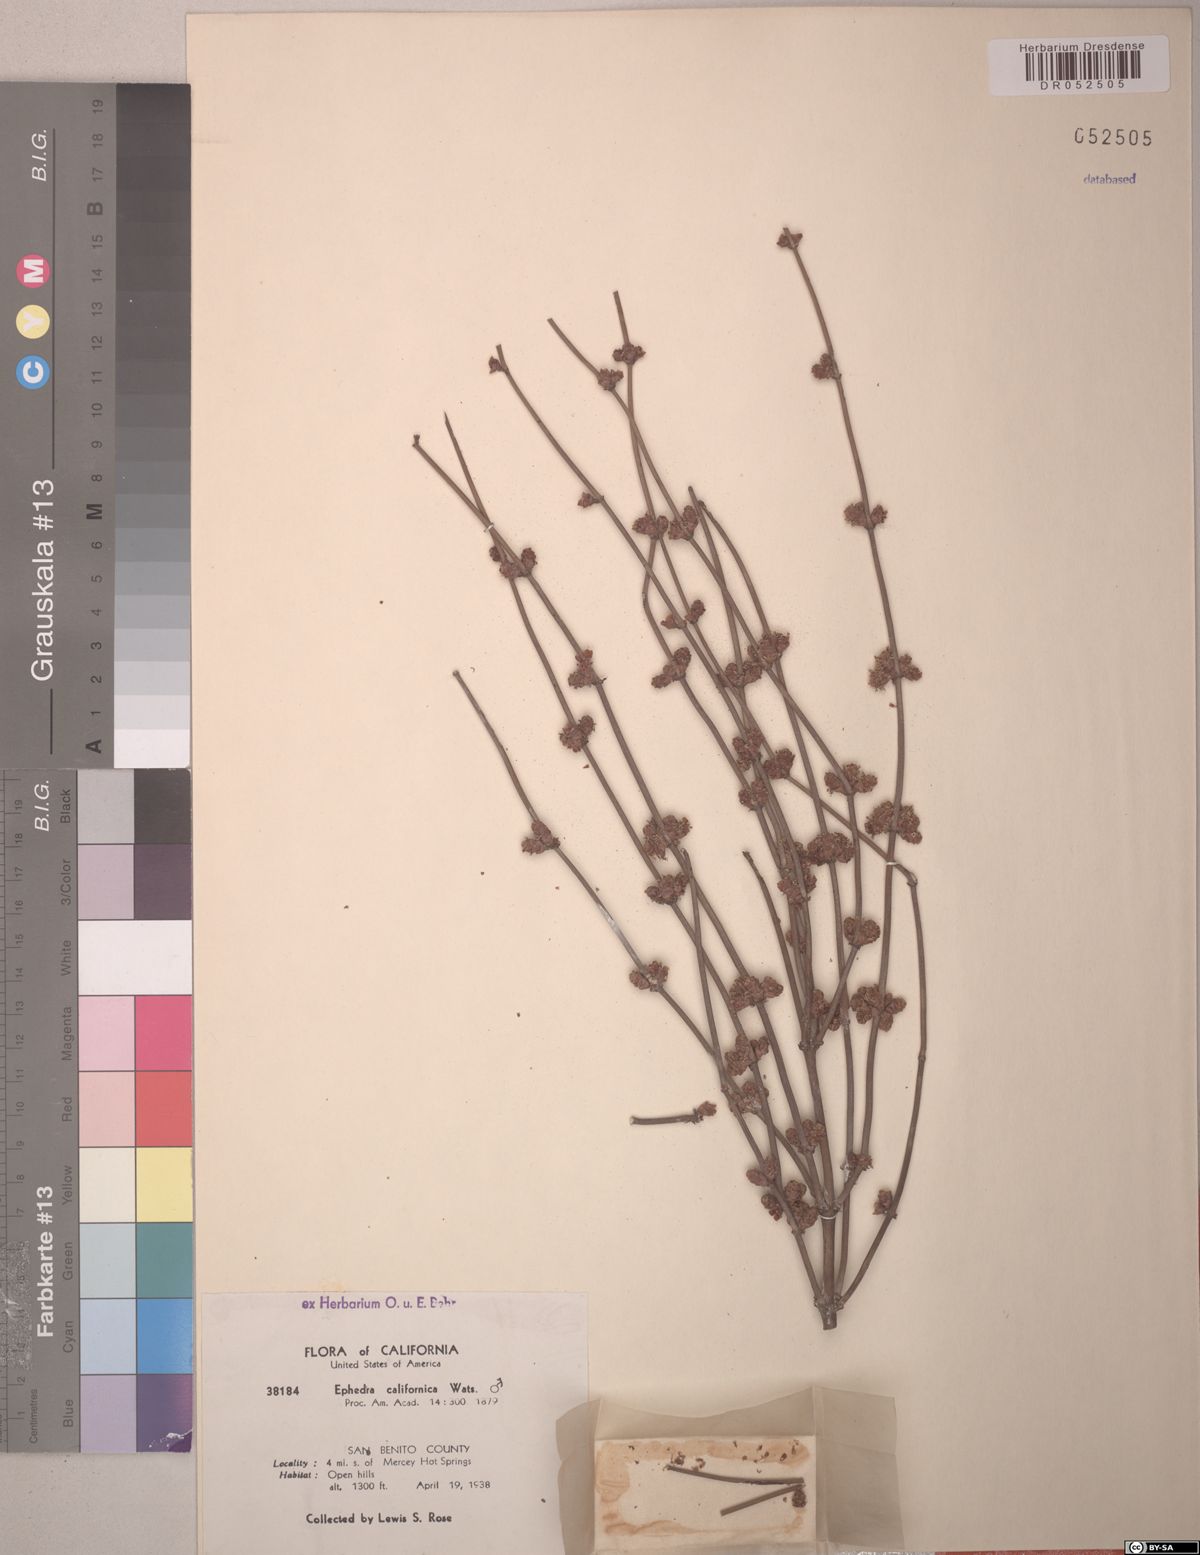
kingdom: Plantae
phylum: Tracheophyta
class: Gnetopsida
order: Ephedrales
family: Ephedraceae
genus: Ephedra
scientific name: Ephedra californica
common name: California ephedra
